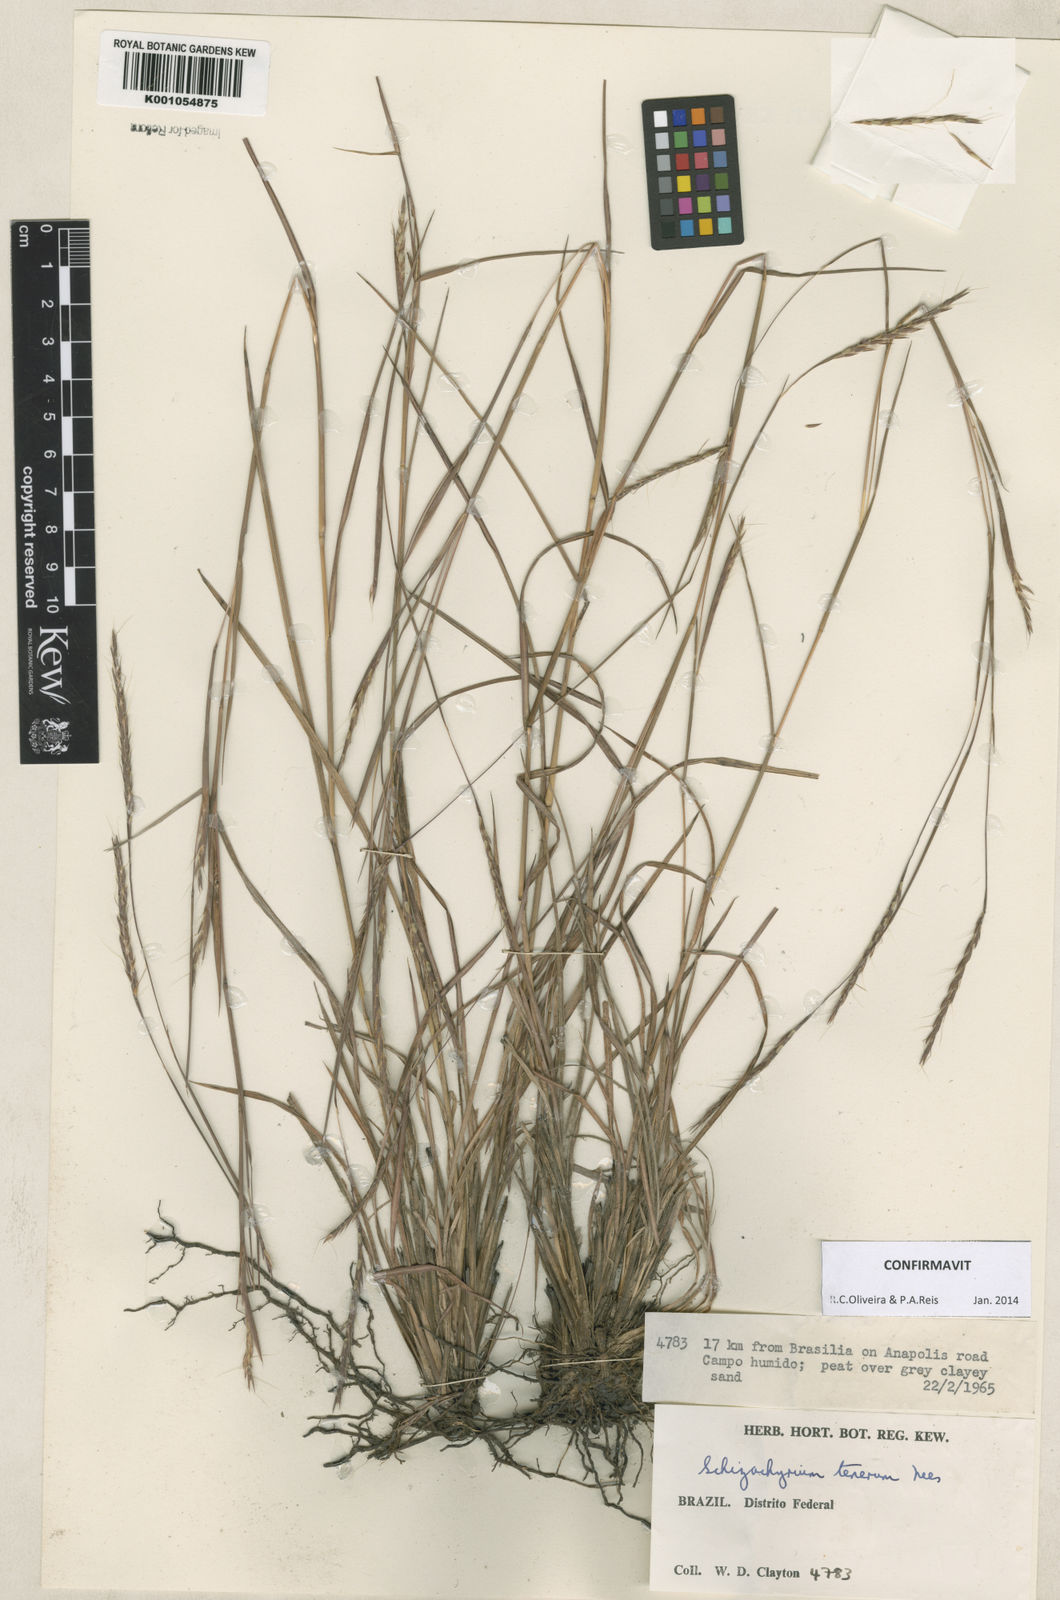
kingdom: Plantae
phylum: Tracheophyta
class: Liliopsida
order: Poales
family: Poaceae
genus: Andropogon
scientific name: Andropogon tener
